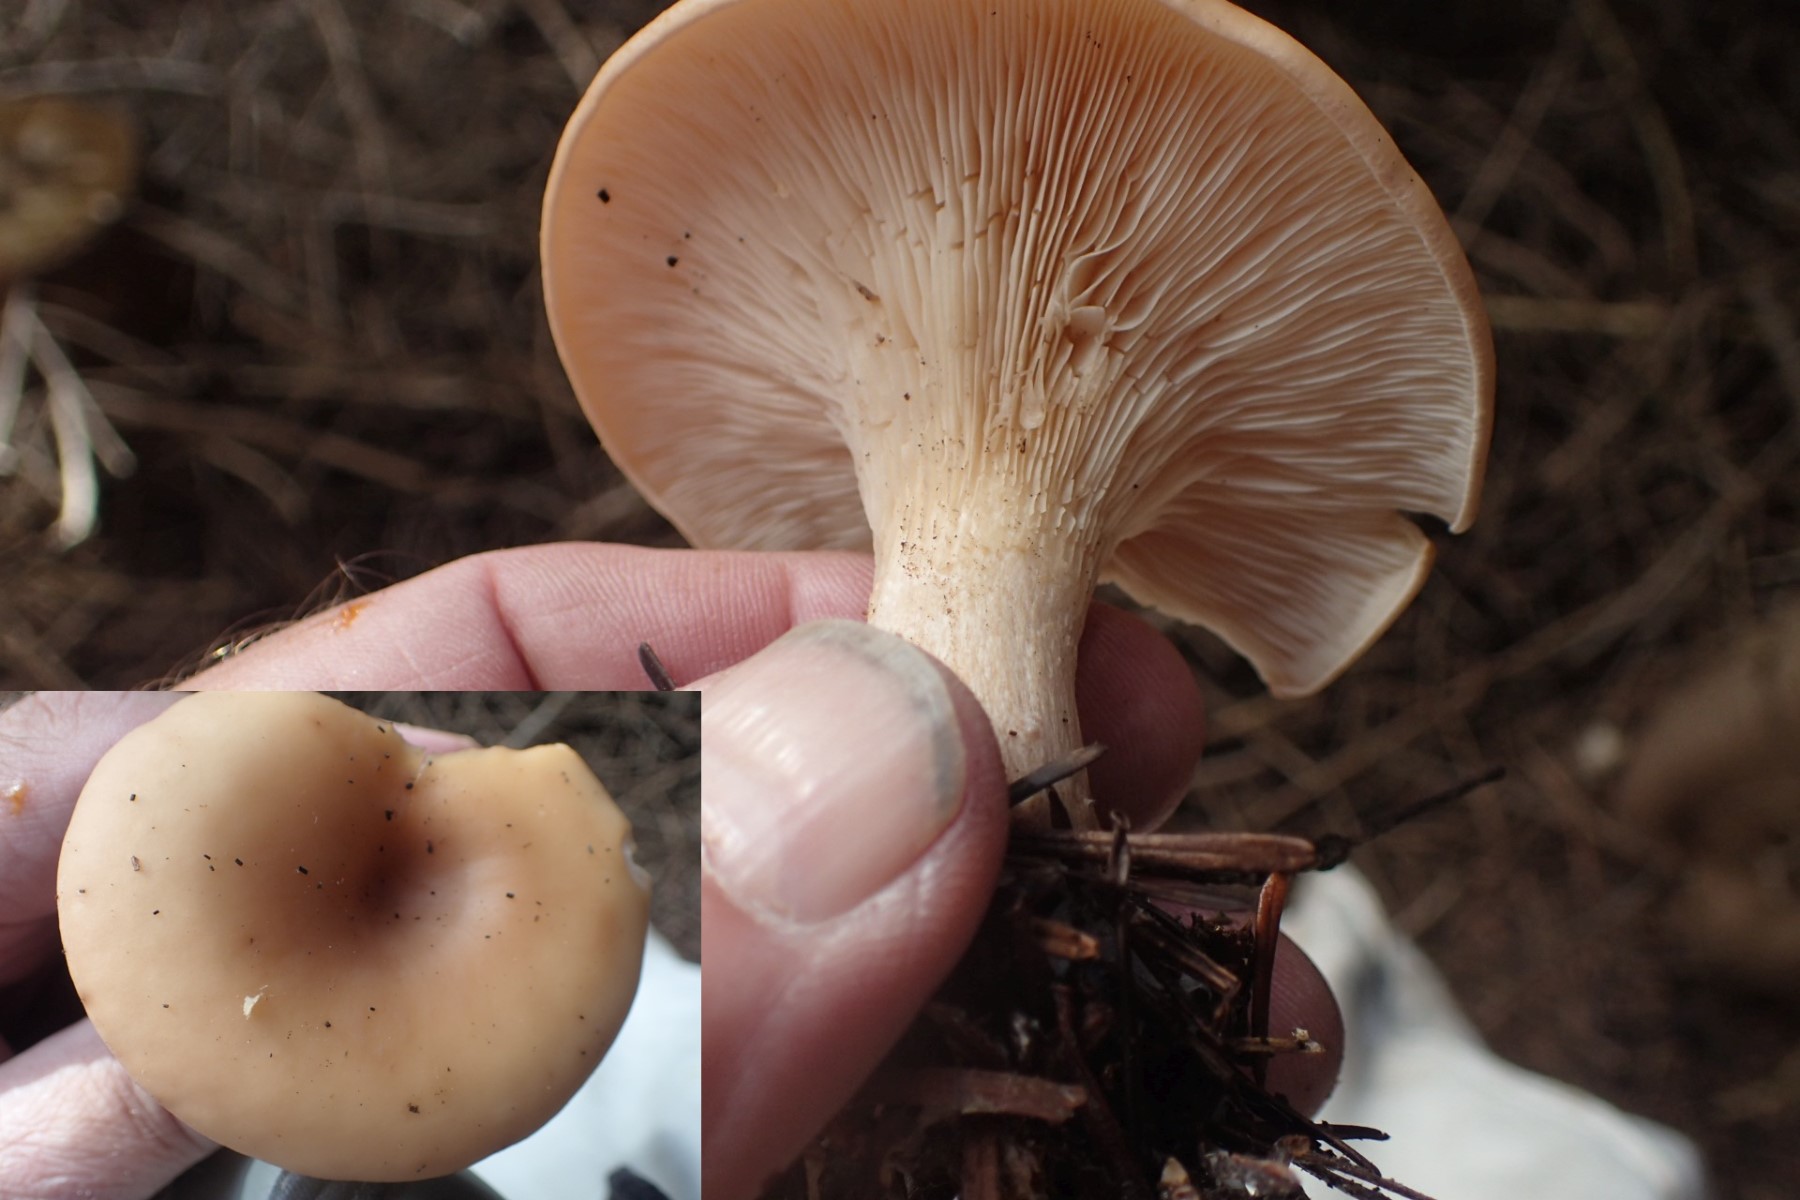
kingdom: Fungi
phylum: Basidiomycota
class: Agaricomycetes
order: Agaricales
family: Tricholomataceae
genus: Paralepista
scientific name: Paralepista flaccida
